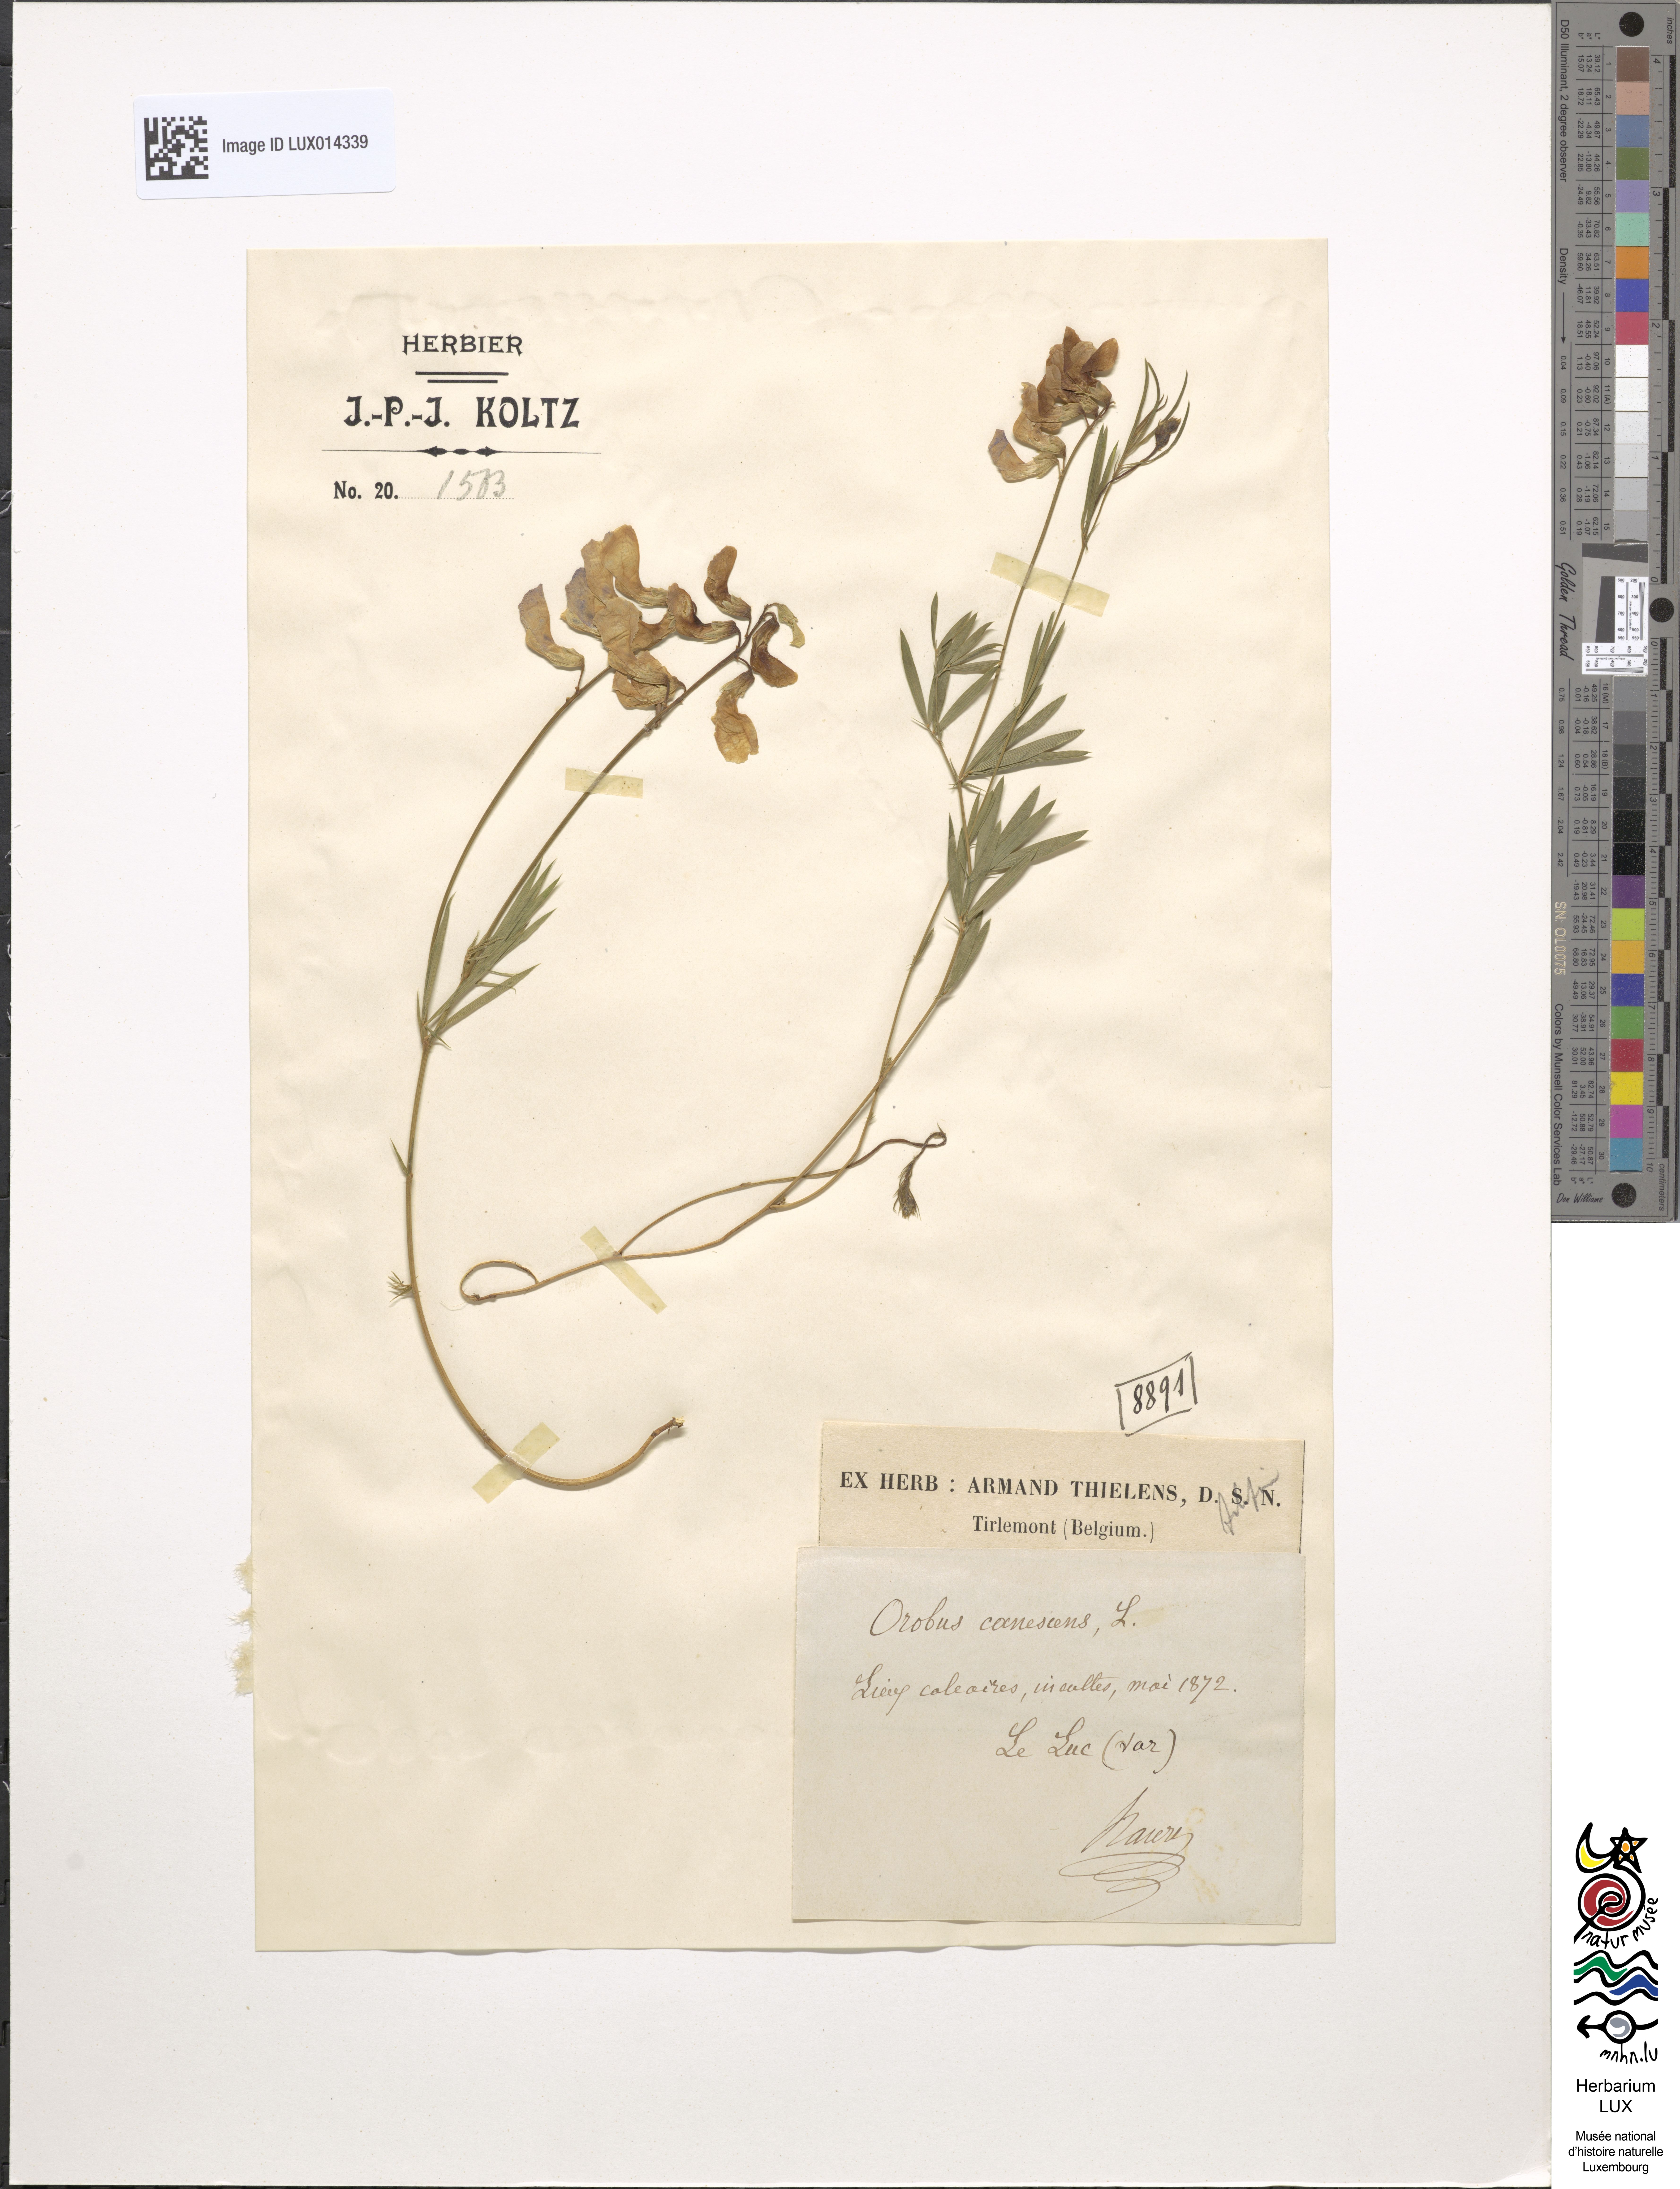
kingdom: Plantae
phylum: Tracheophyta
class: Magnoliopsida
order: Fabales
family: Fabaceae
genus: Lathyrus
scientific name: Lathyrus filiformis
